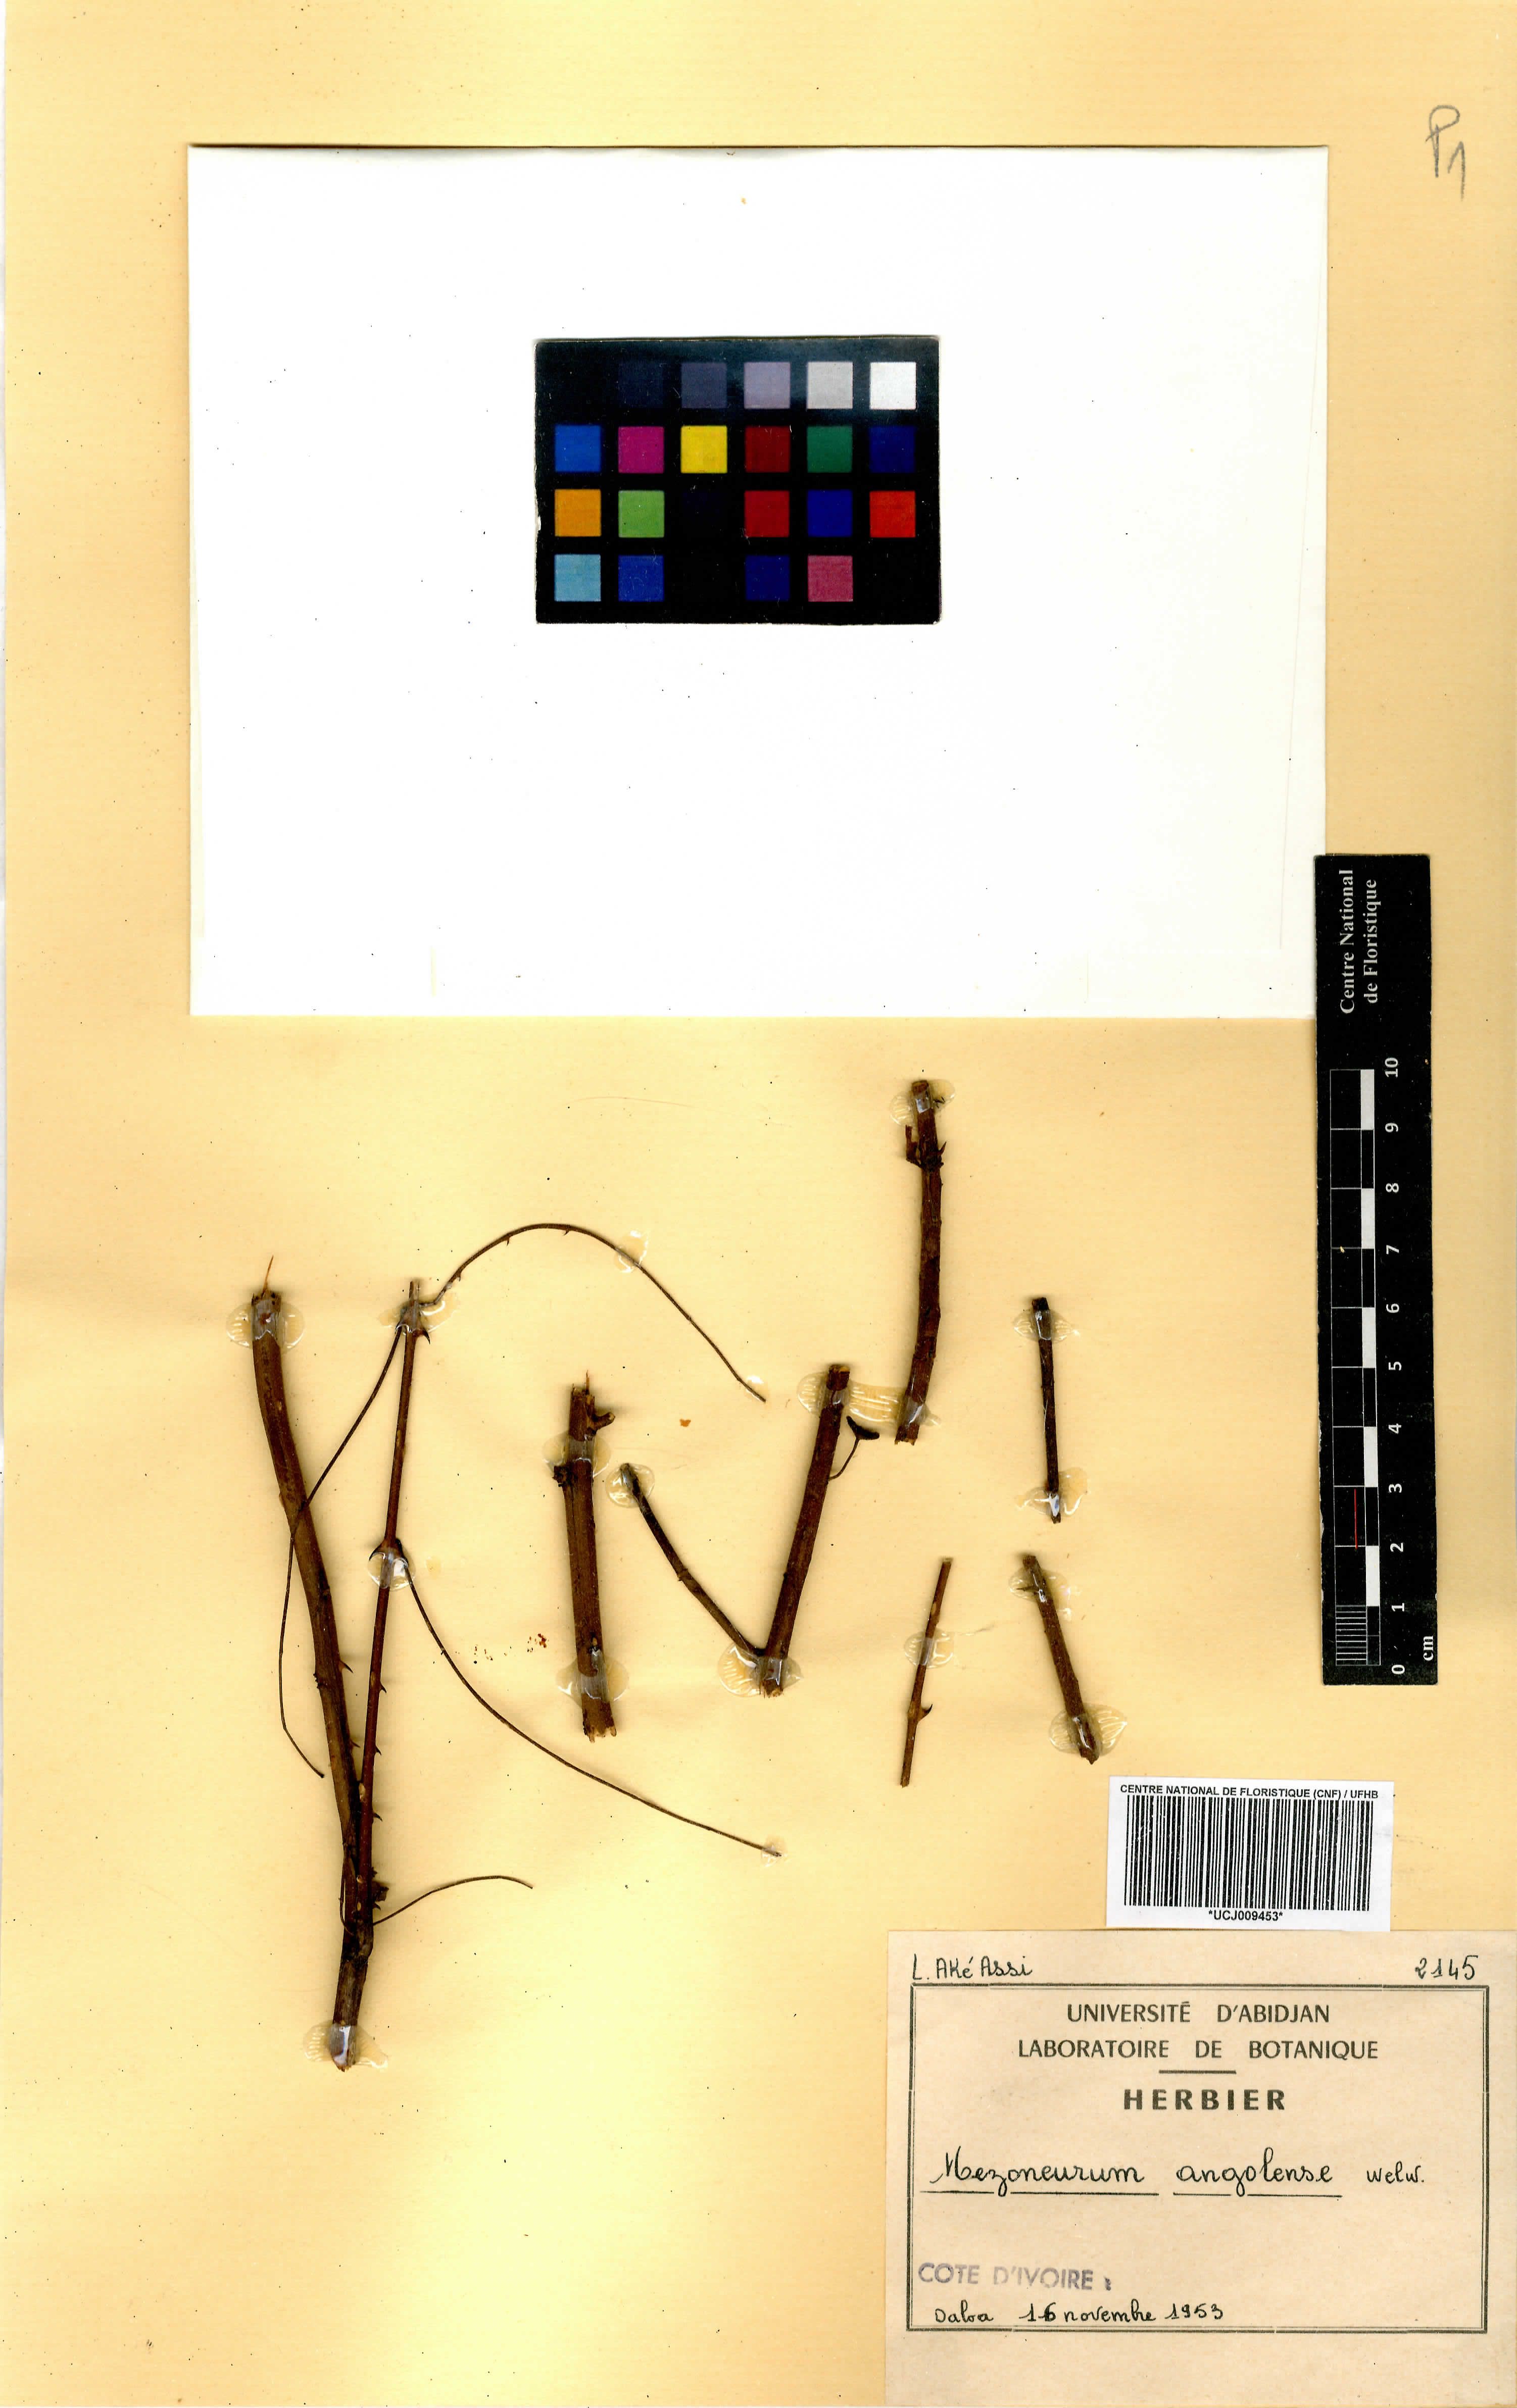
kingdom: Plantae
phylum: Tracheophyta
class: Magnoliopsida
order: Fabales
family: Fabaceae
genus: Mezoneuron
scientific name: Mezoneuron angolense
